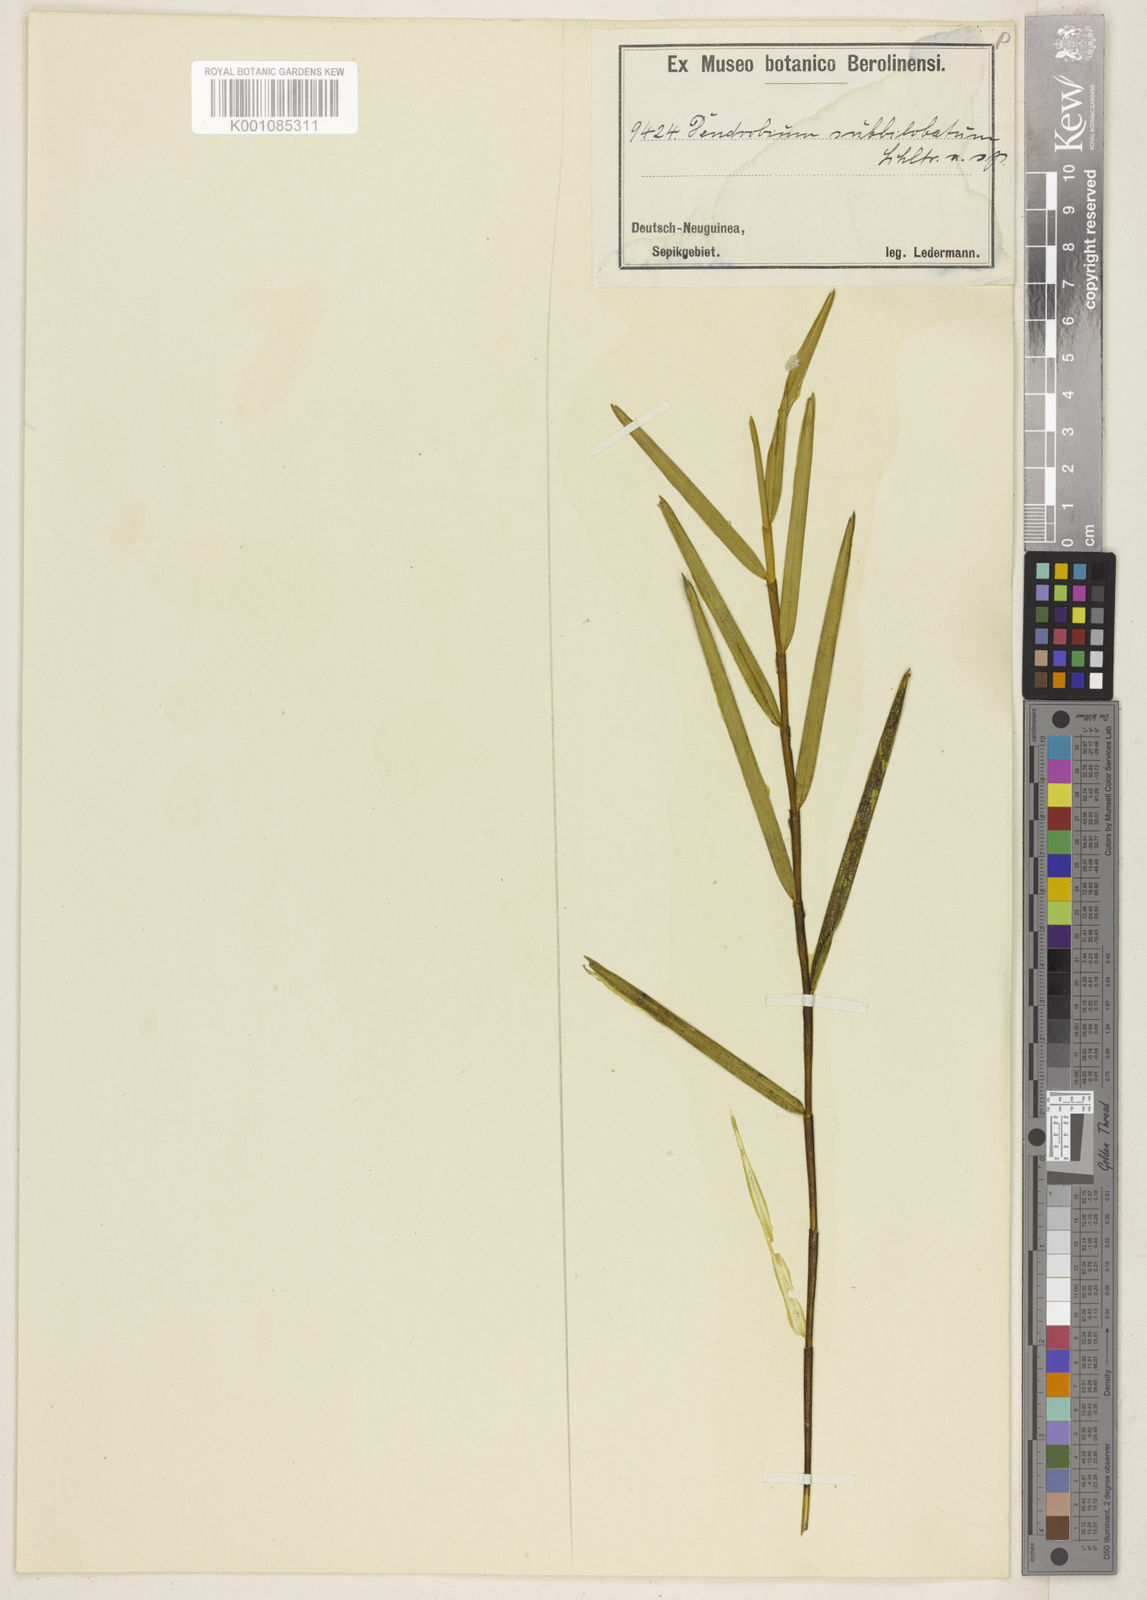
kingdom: Plantae
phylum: Tracheophyta
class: Liliopsida
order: Asparagales
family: Orchidaceae
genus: Dendrobium
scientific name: Dendrobium subbilobatum
